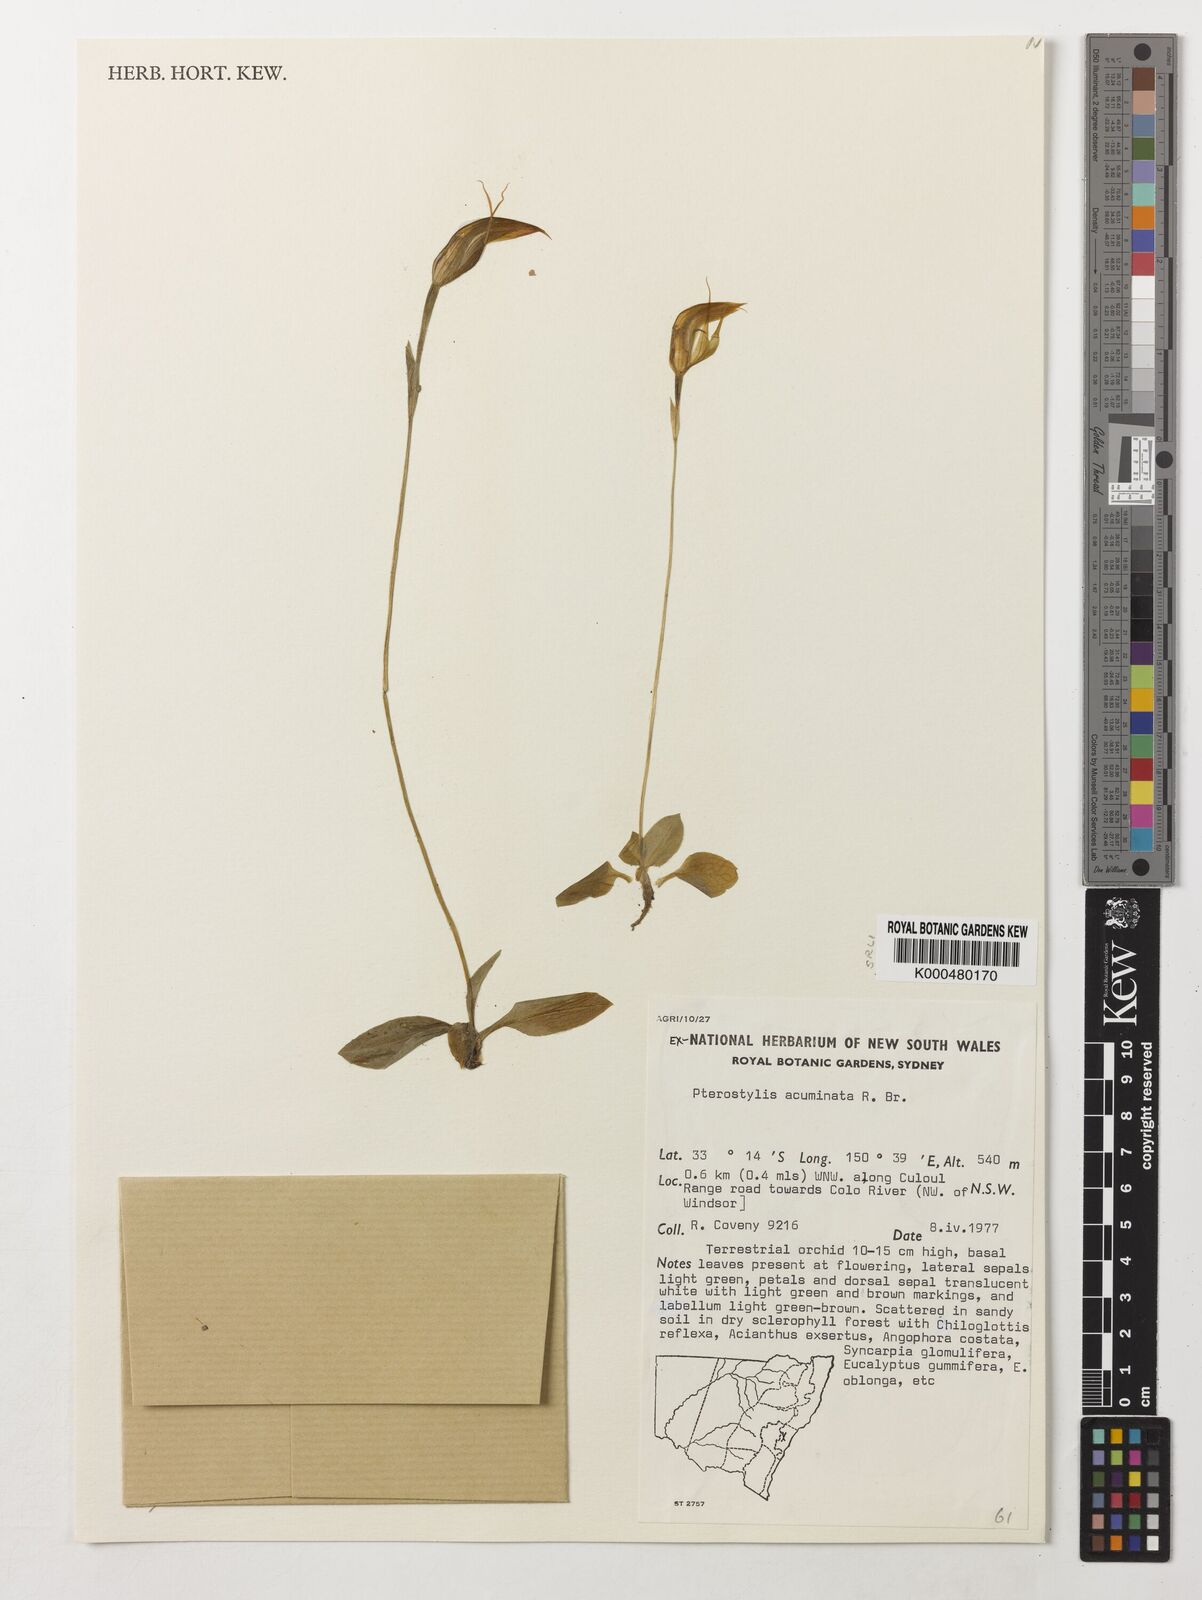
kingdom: Plantae
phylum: Tracheophyta
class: Liliopsida
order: Asparagales
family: Orchidaceae
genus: Pterostylis
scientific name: Pterostylis concinna
